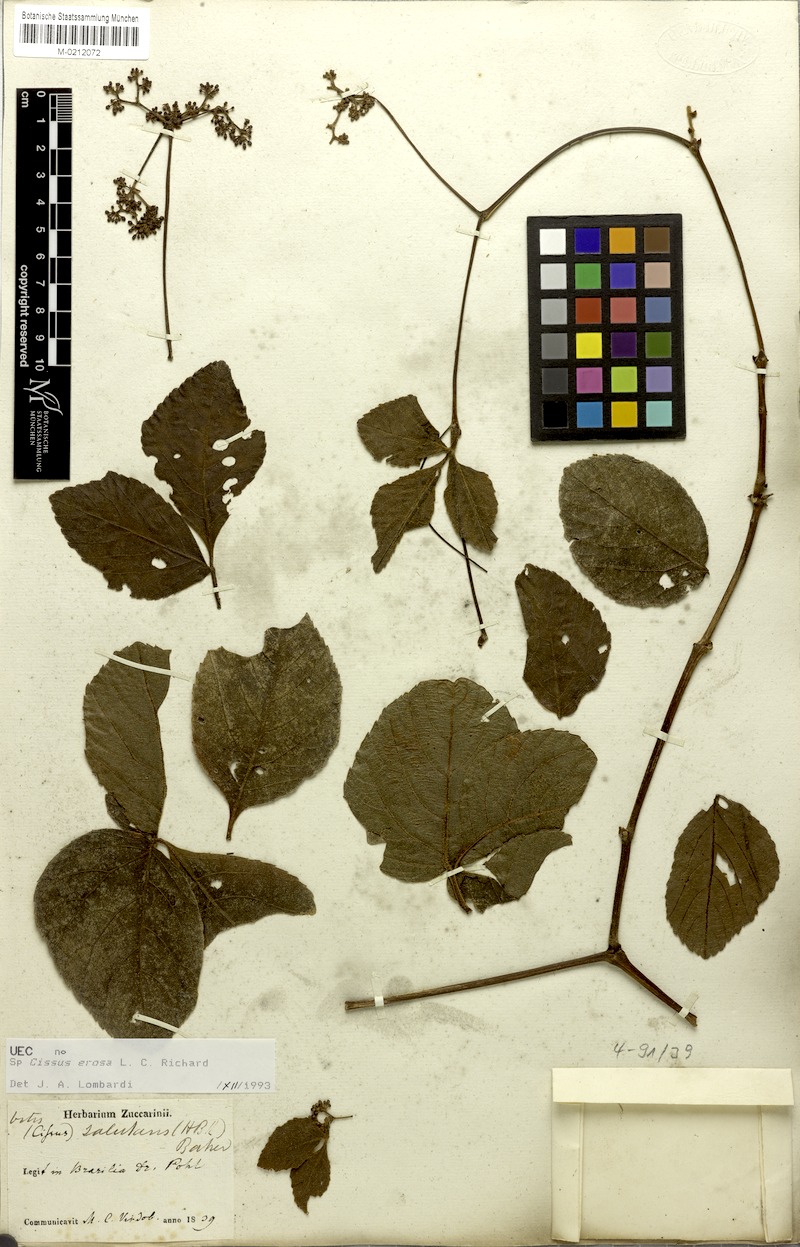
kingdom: Plantae
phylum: Tracheophyta
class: Magnoliopsida
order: Vitales
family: Vitaceae
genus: Cissus
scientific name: Cissus erosa
